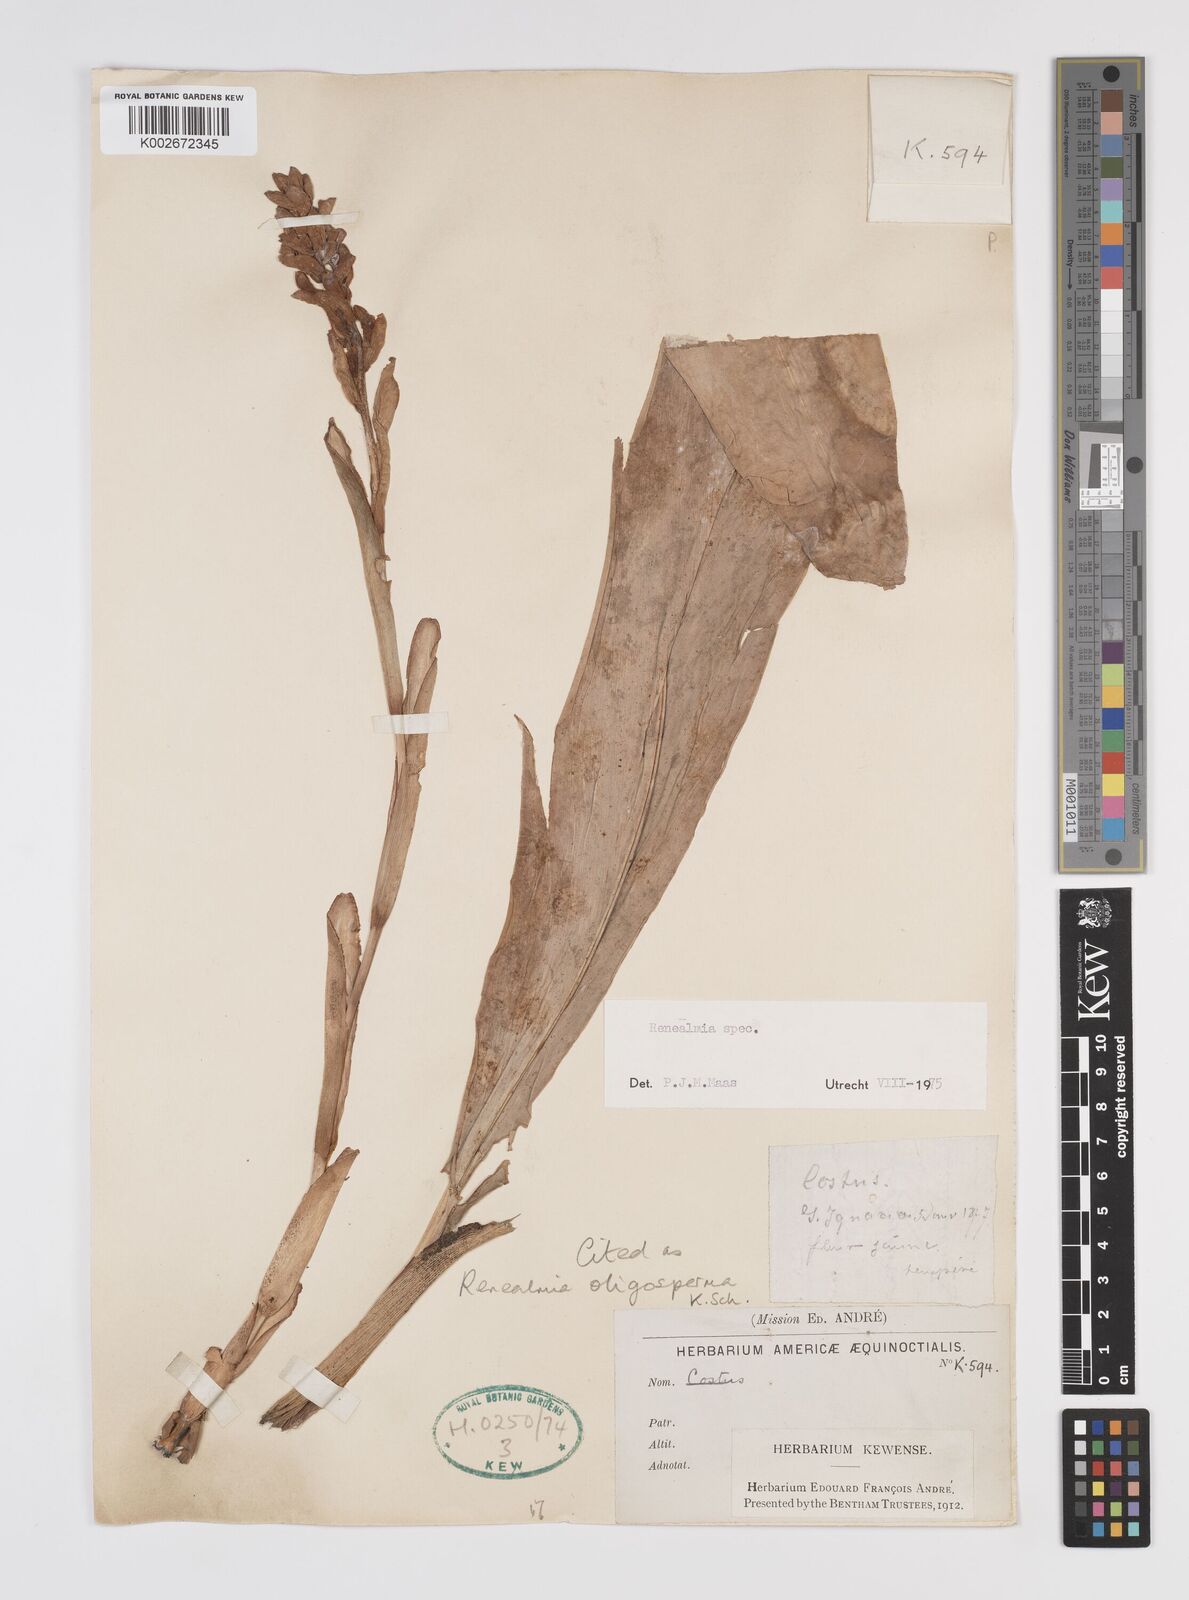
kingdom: Plantae
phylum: Tracheophyta
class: Liliopsida
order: Zingiberales
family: Zingiberaceae
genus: Renealmia
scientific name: Renealmia oligosperma
